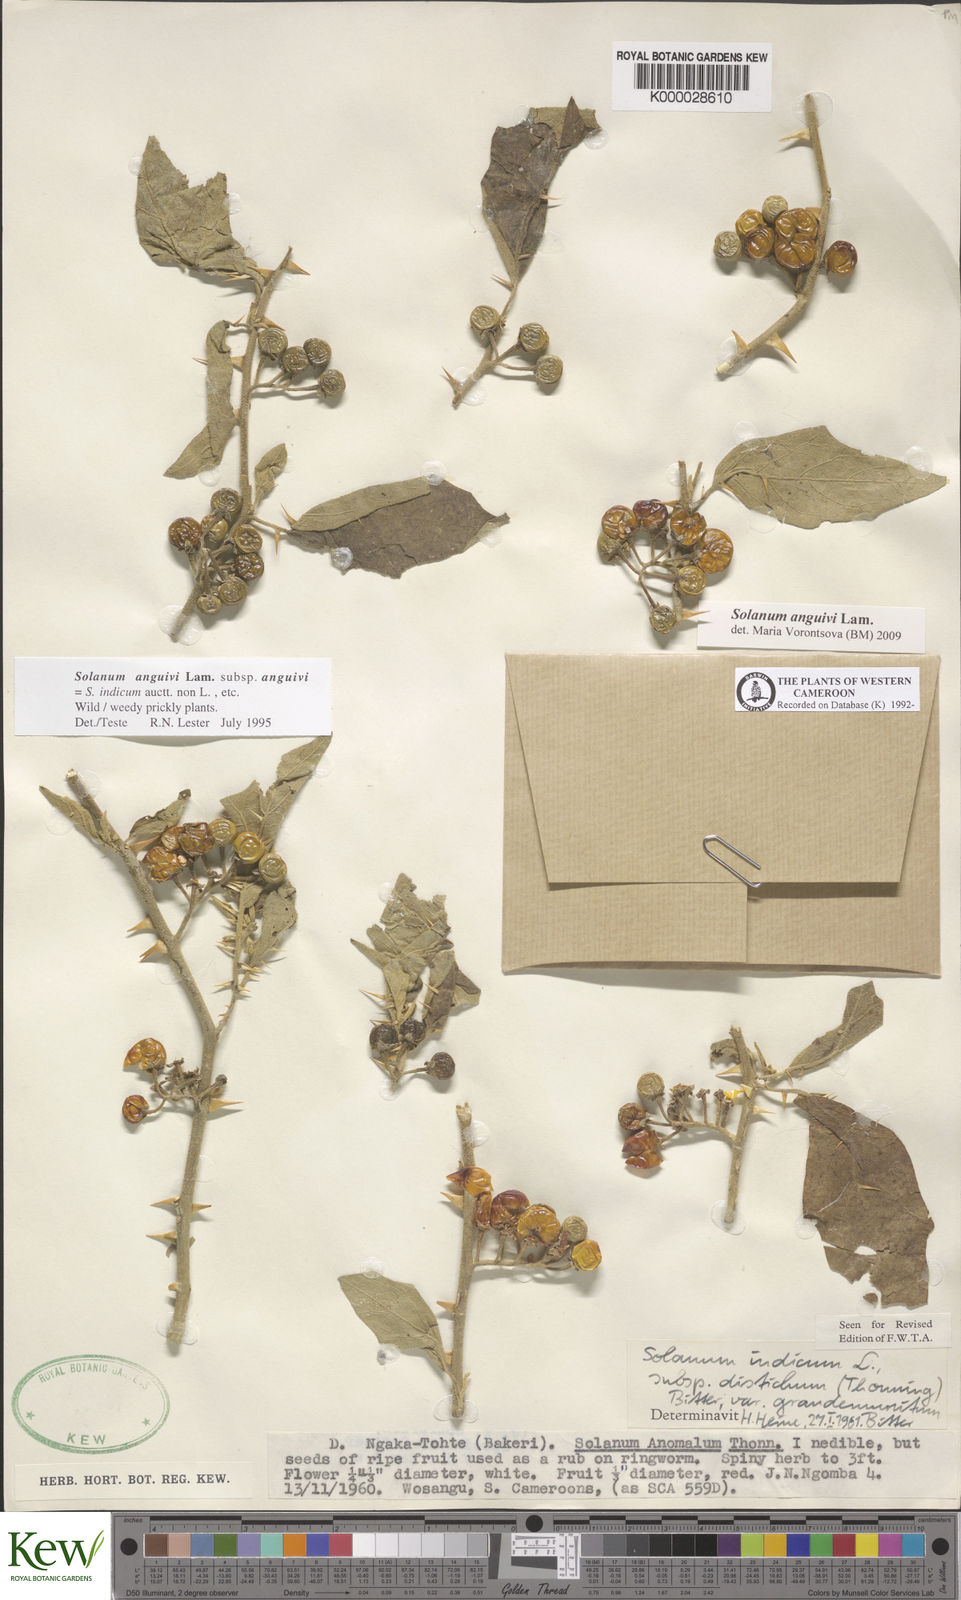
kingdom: Plantae
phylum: Tracheophyta
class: Magnoliopsida
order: Solanales
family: Solanaceae
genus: Solanum
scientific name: Solanum anguivi
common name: Forest bitterberry
